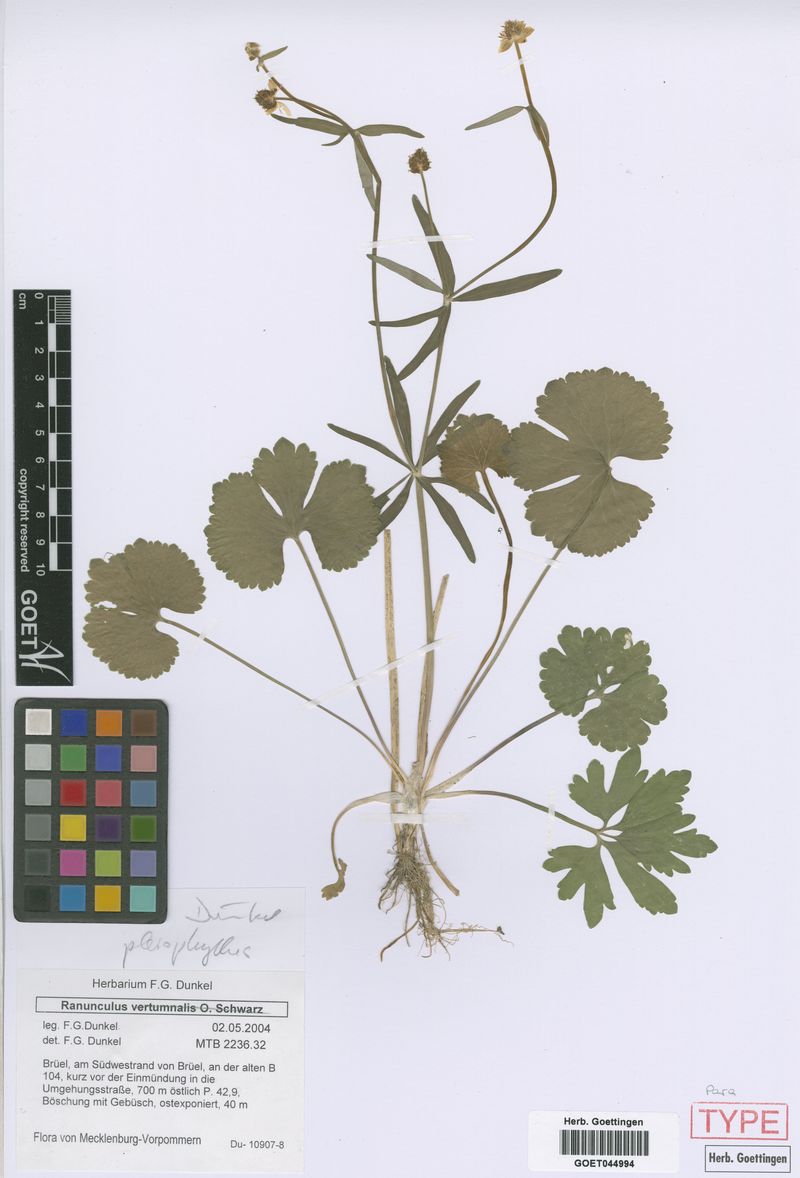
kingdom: Plantae
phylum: Tracheophyta
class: Magnoliopsida
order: Ranunculales
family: Ranunculaceae
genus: Ranunculus
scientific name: Ranunculus pleiophyllus
